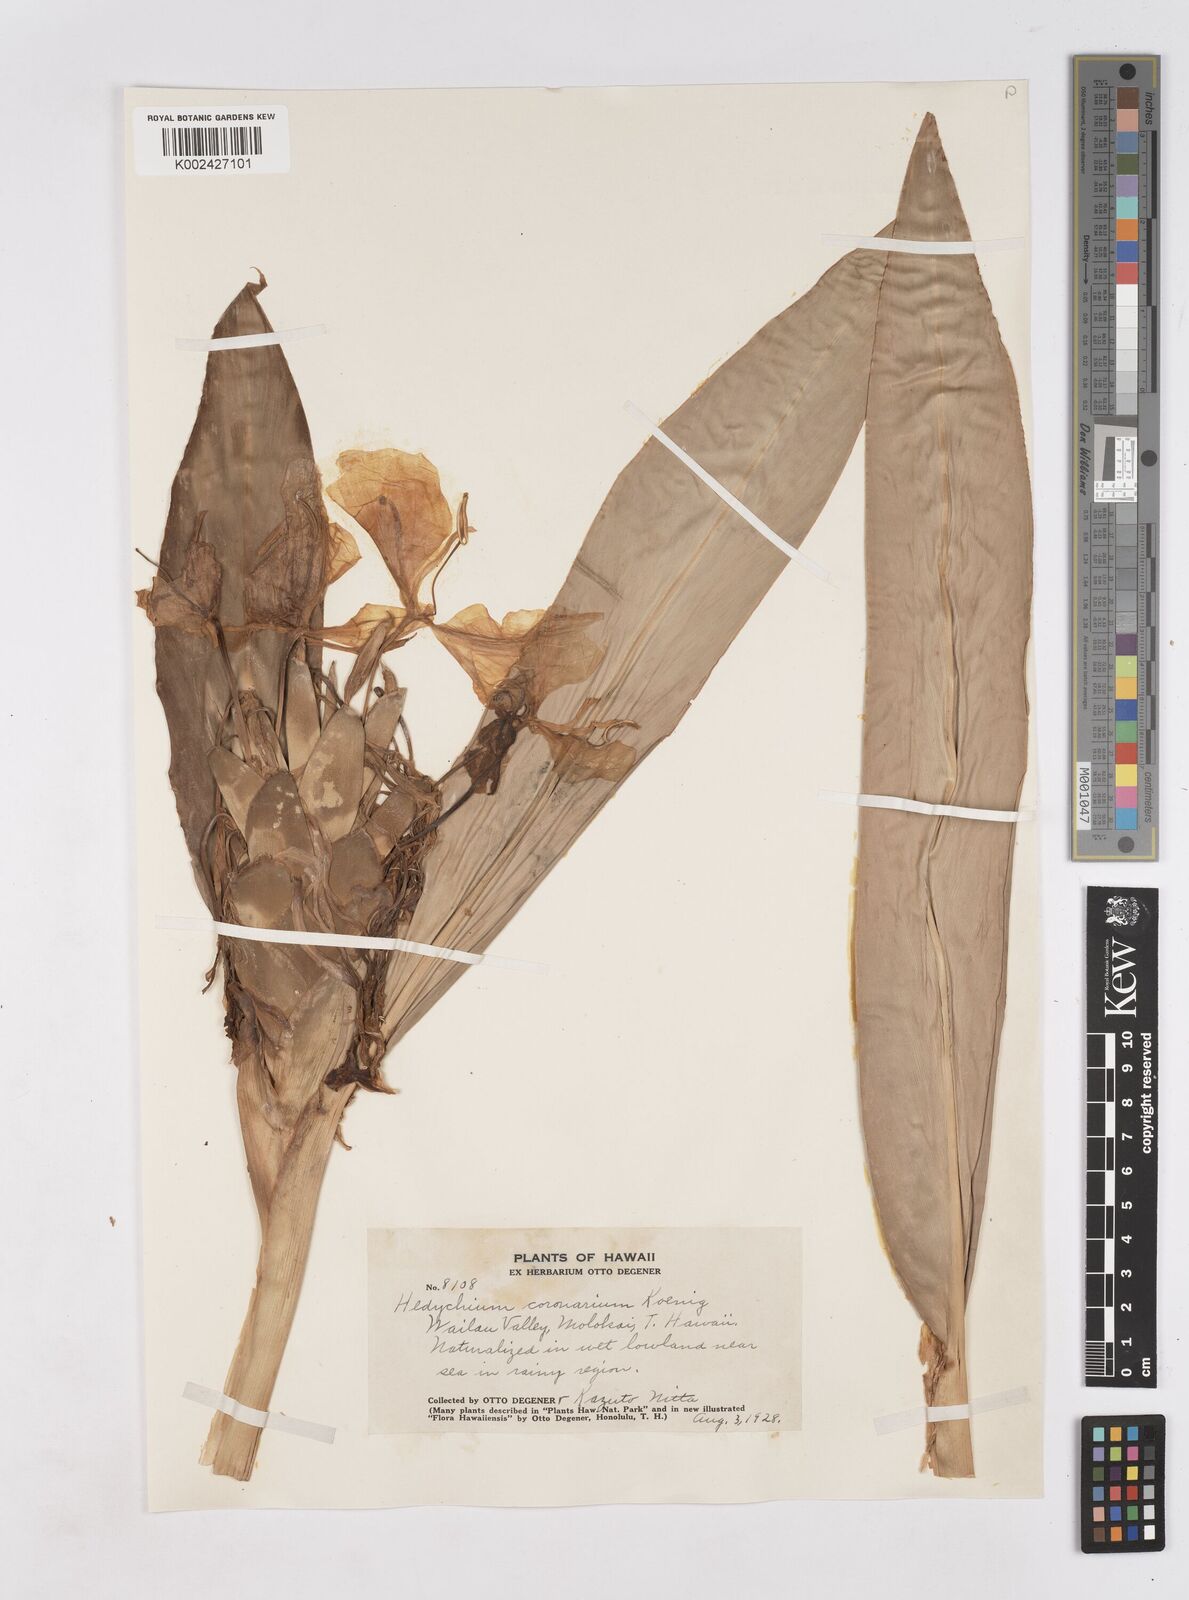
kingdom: Plantae
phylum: Tracheophyta
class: Liliopsida
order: Zingiberales
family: Zingiberaceae
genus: Hedychium
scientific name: Hedychium coronarium
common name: White garland-lily
